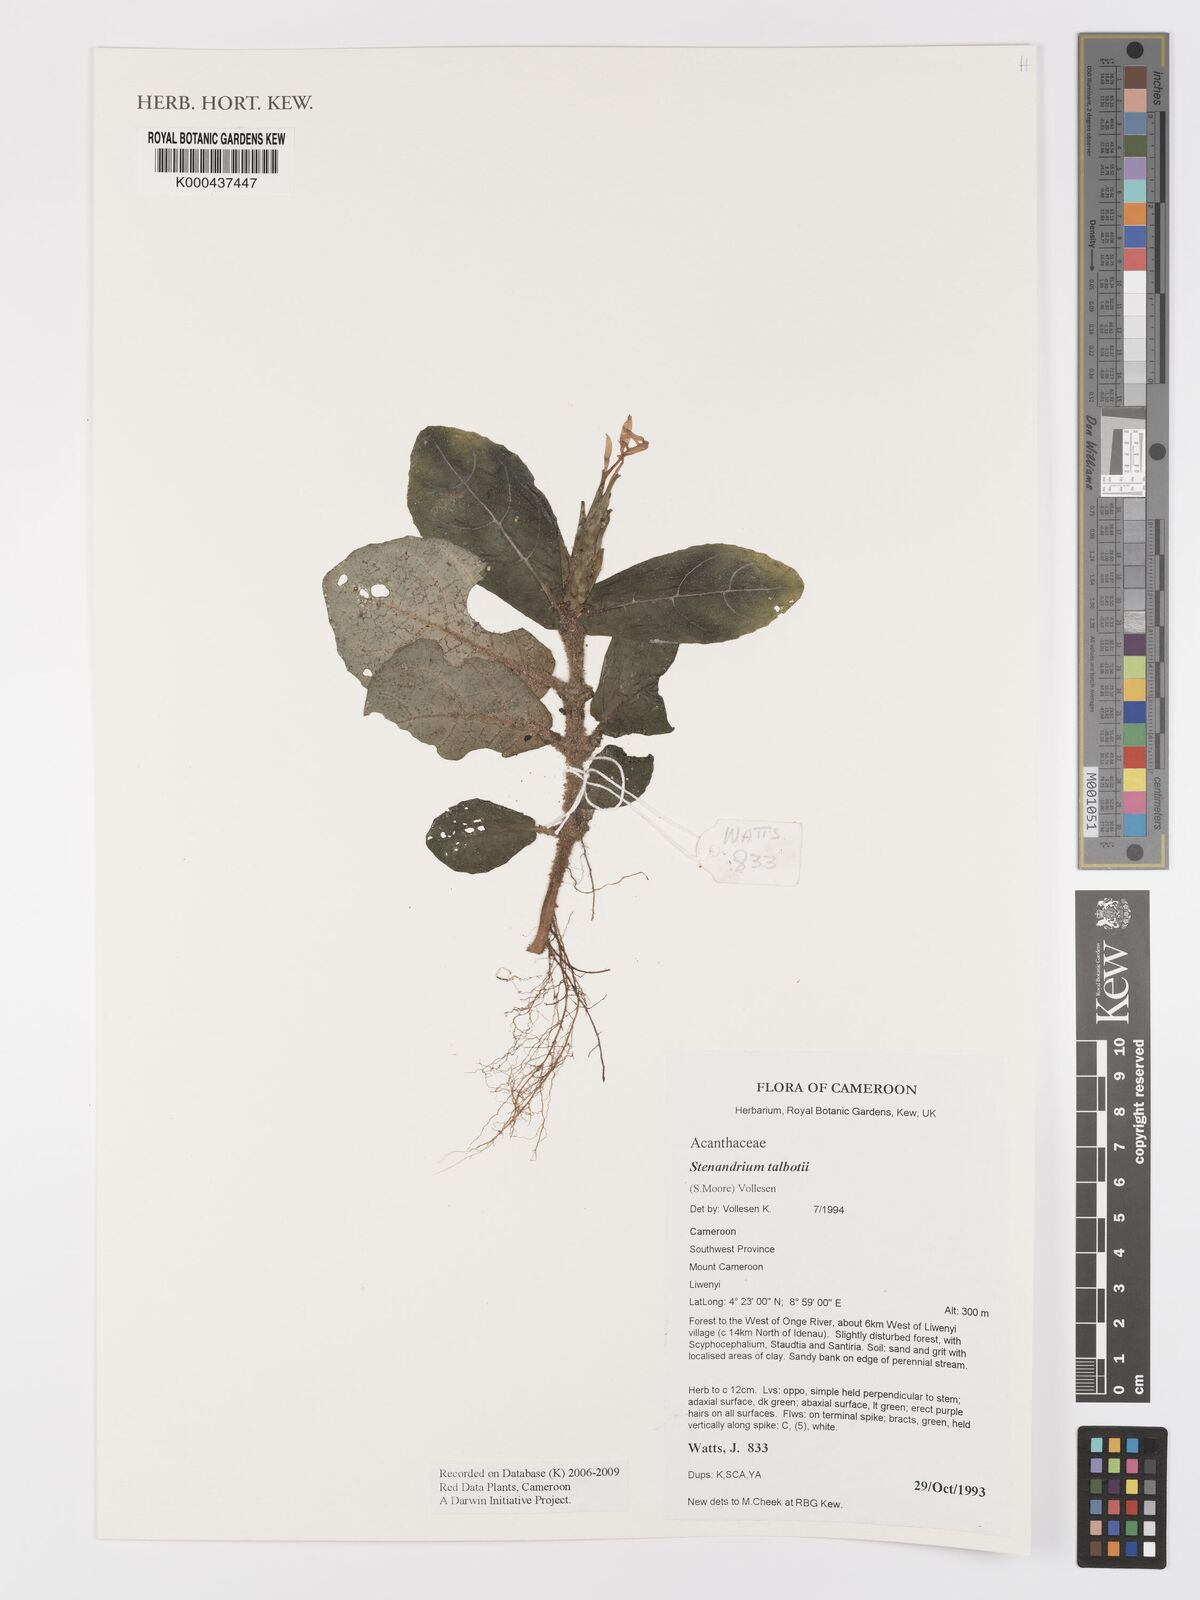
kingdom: Plantae
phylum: Tracheophyta
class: Magnoliopsida
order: Lamiales
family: Acanthaceae
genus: Stenandriopsis
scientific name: Stenandriopsis talbotii
